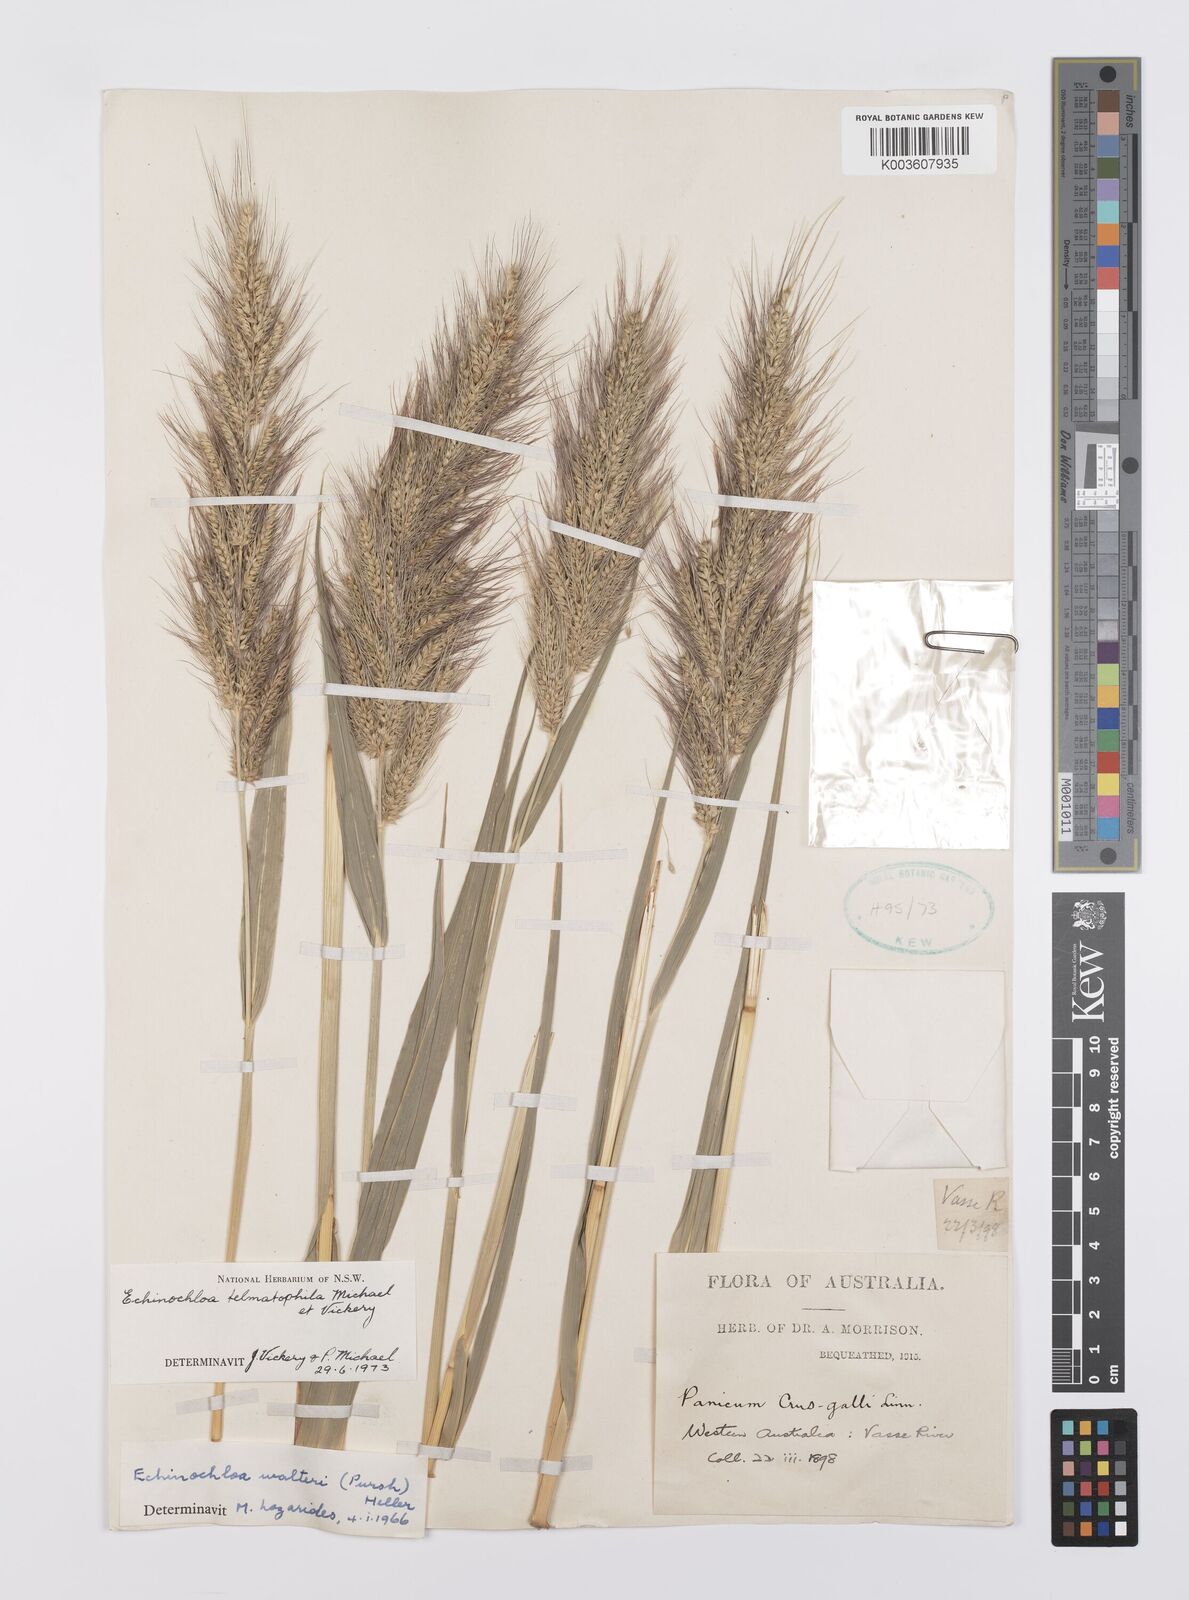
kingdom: Plantae
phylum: Tracheophyta
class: Liliopsida
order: Poales
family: Poaceae
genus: Echinochloa
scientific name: Echinochloa crus-galli
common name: Cockspur
